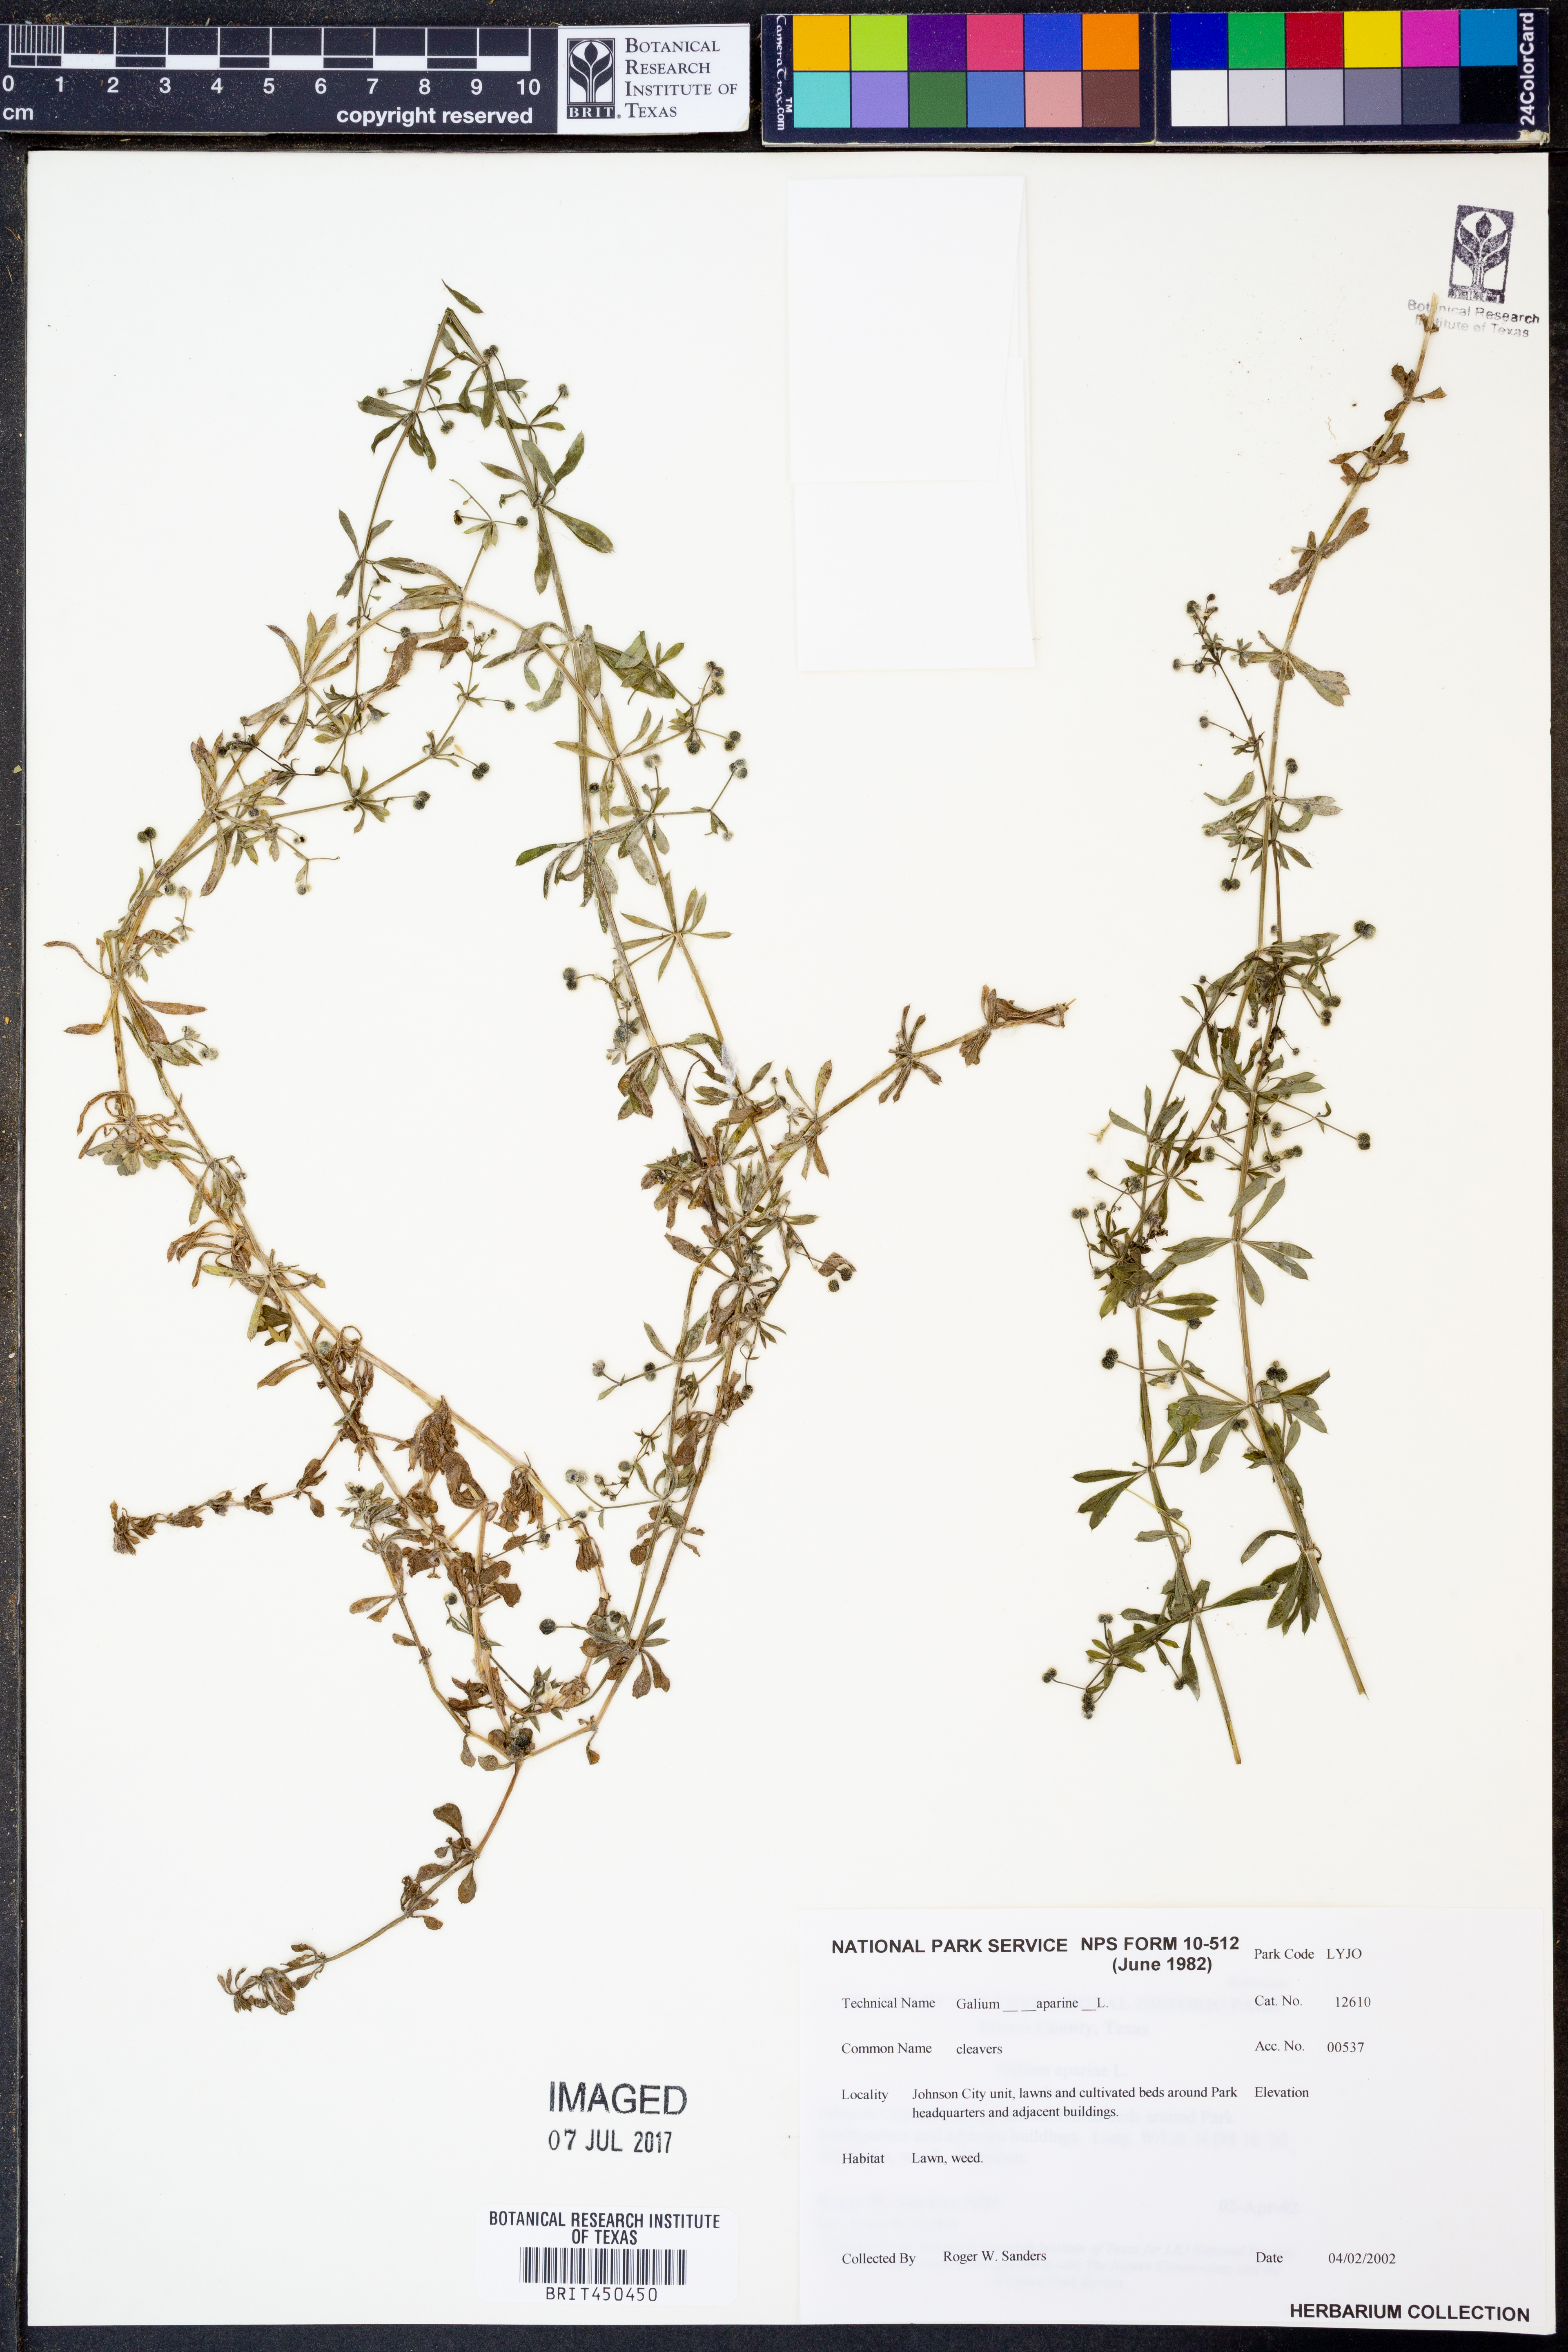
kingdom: Plantae
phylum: Tracheophyta
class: Magnoliopsida
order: Gentianales
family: Rubiaceae
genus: Galium
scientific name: Galium aparine
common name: Cleavers
